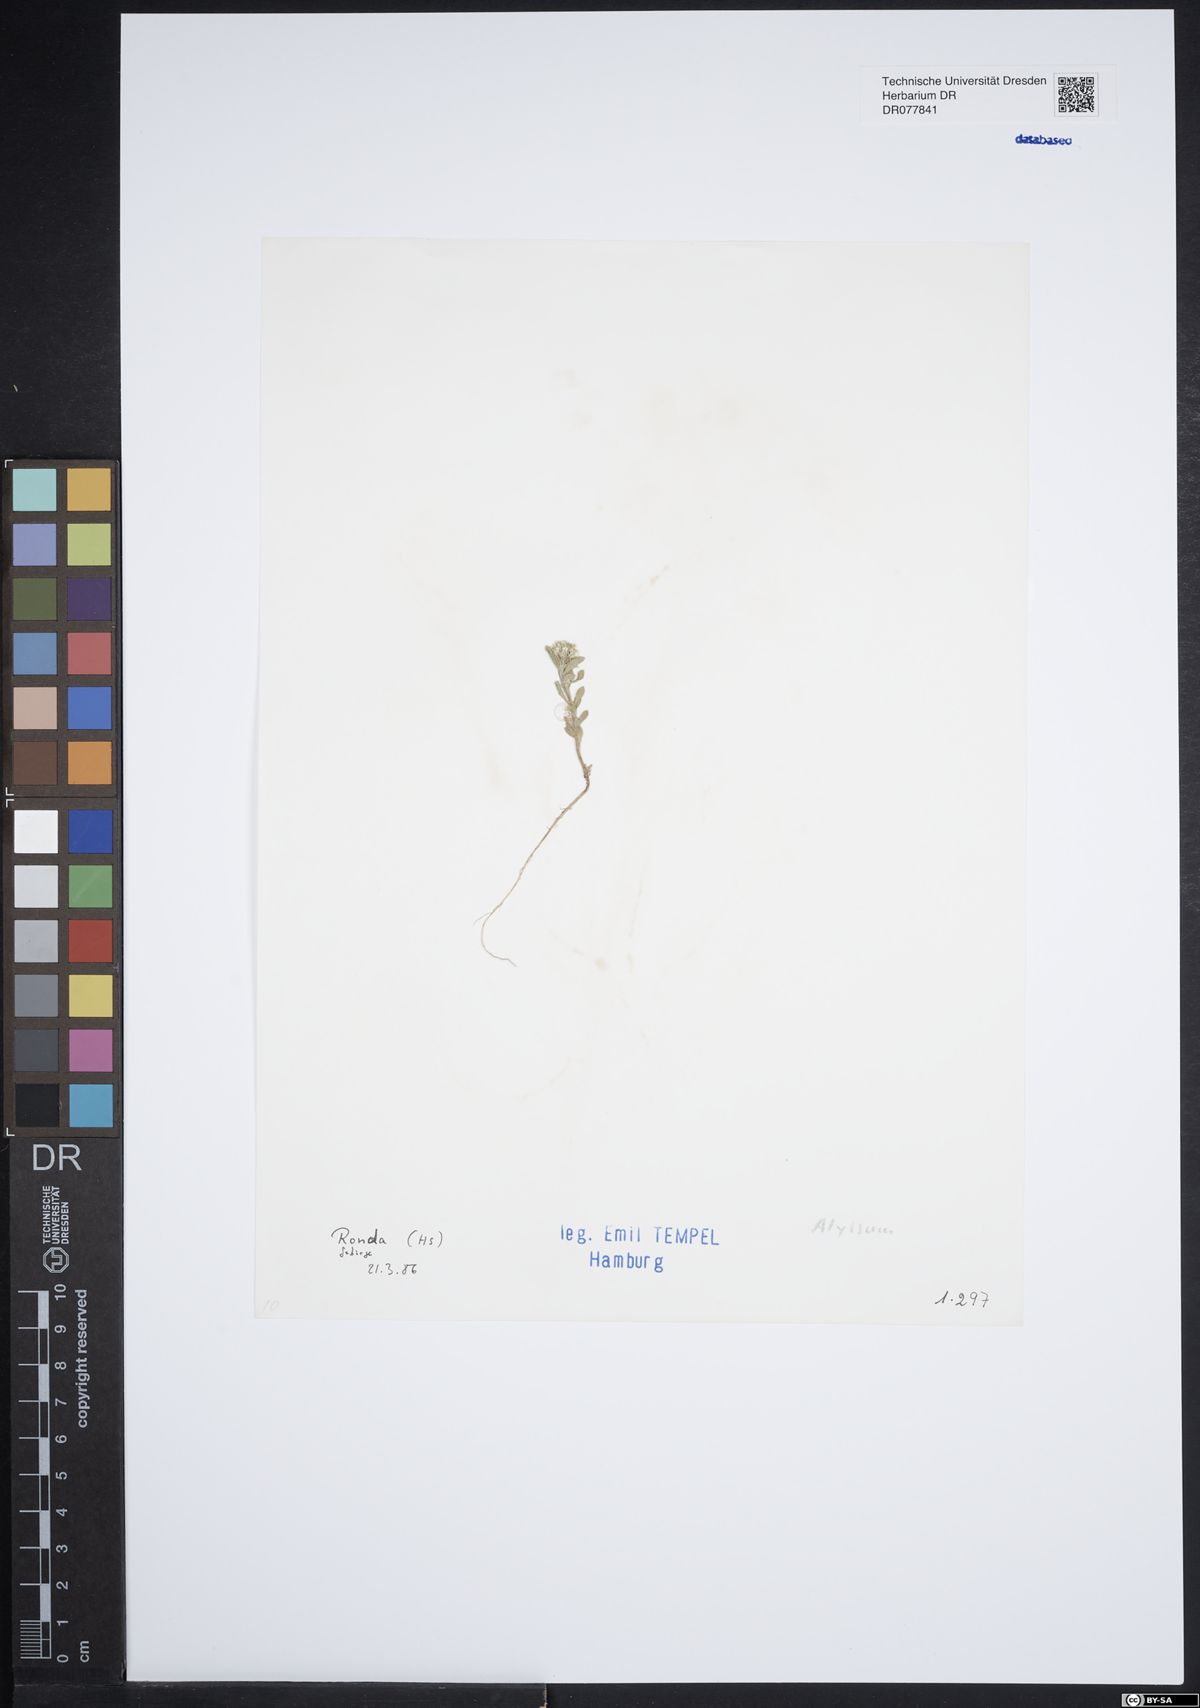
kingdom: Plantae
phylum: Tracheophyta
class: Magnoliopsida
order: Brassicales
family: Brassicaceae
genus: Alyssum
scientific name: Alyssum
